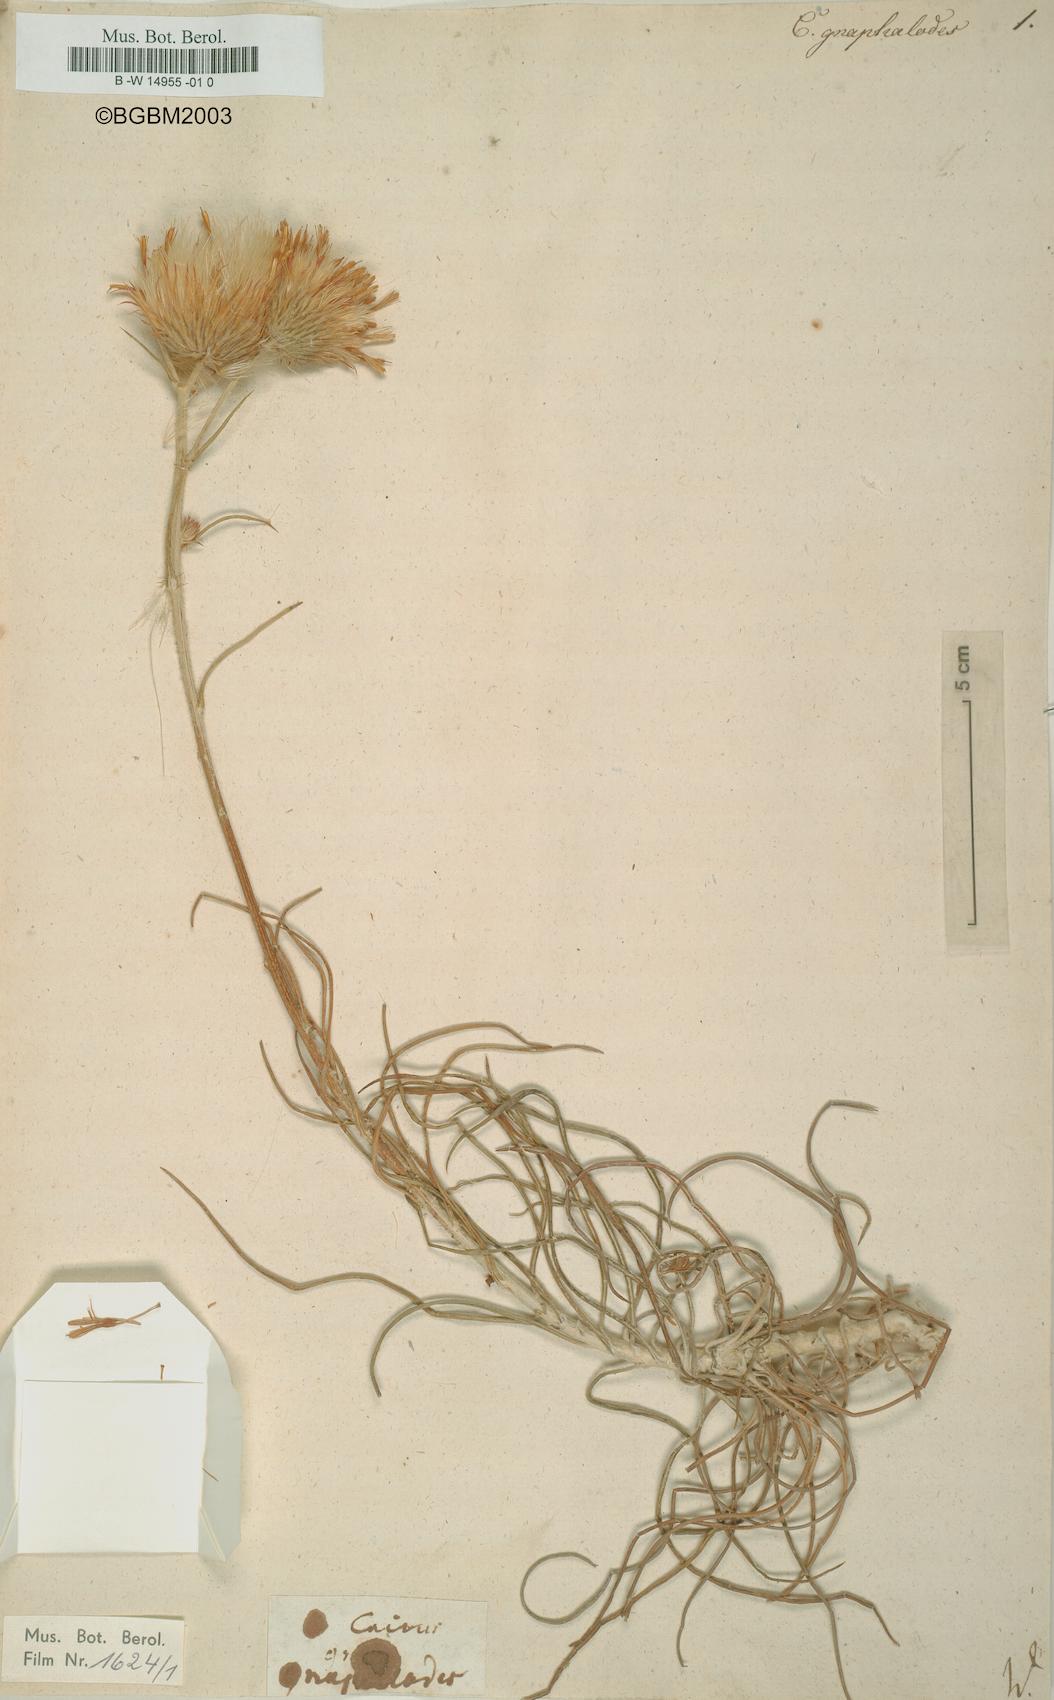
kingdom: Plantae
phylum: Tracheophyta
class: Magnoliopsida
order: Asterales
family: Asteraceae
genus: Ptilostemon
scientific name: Ptilostemon gnaphaloides
